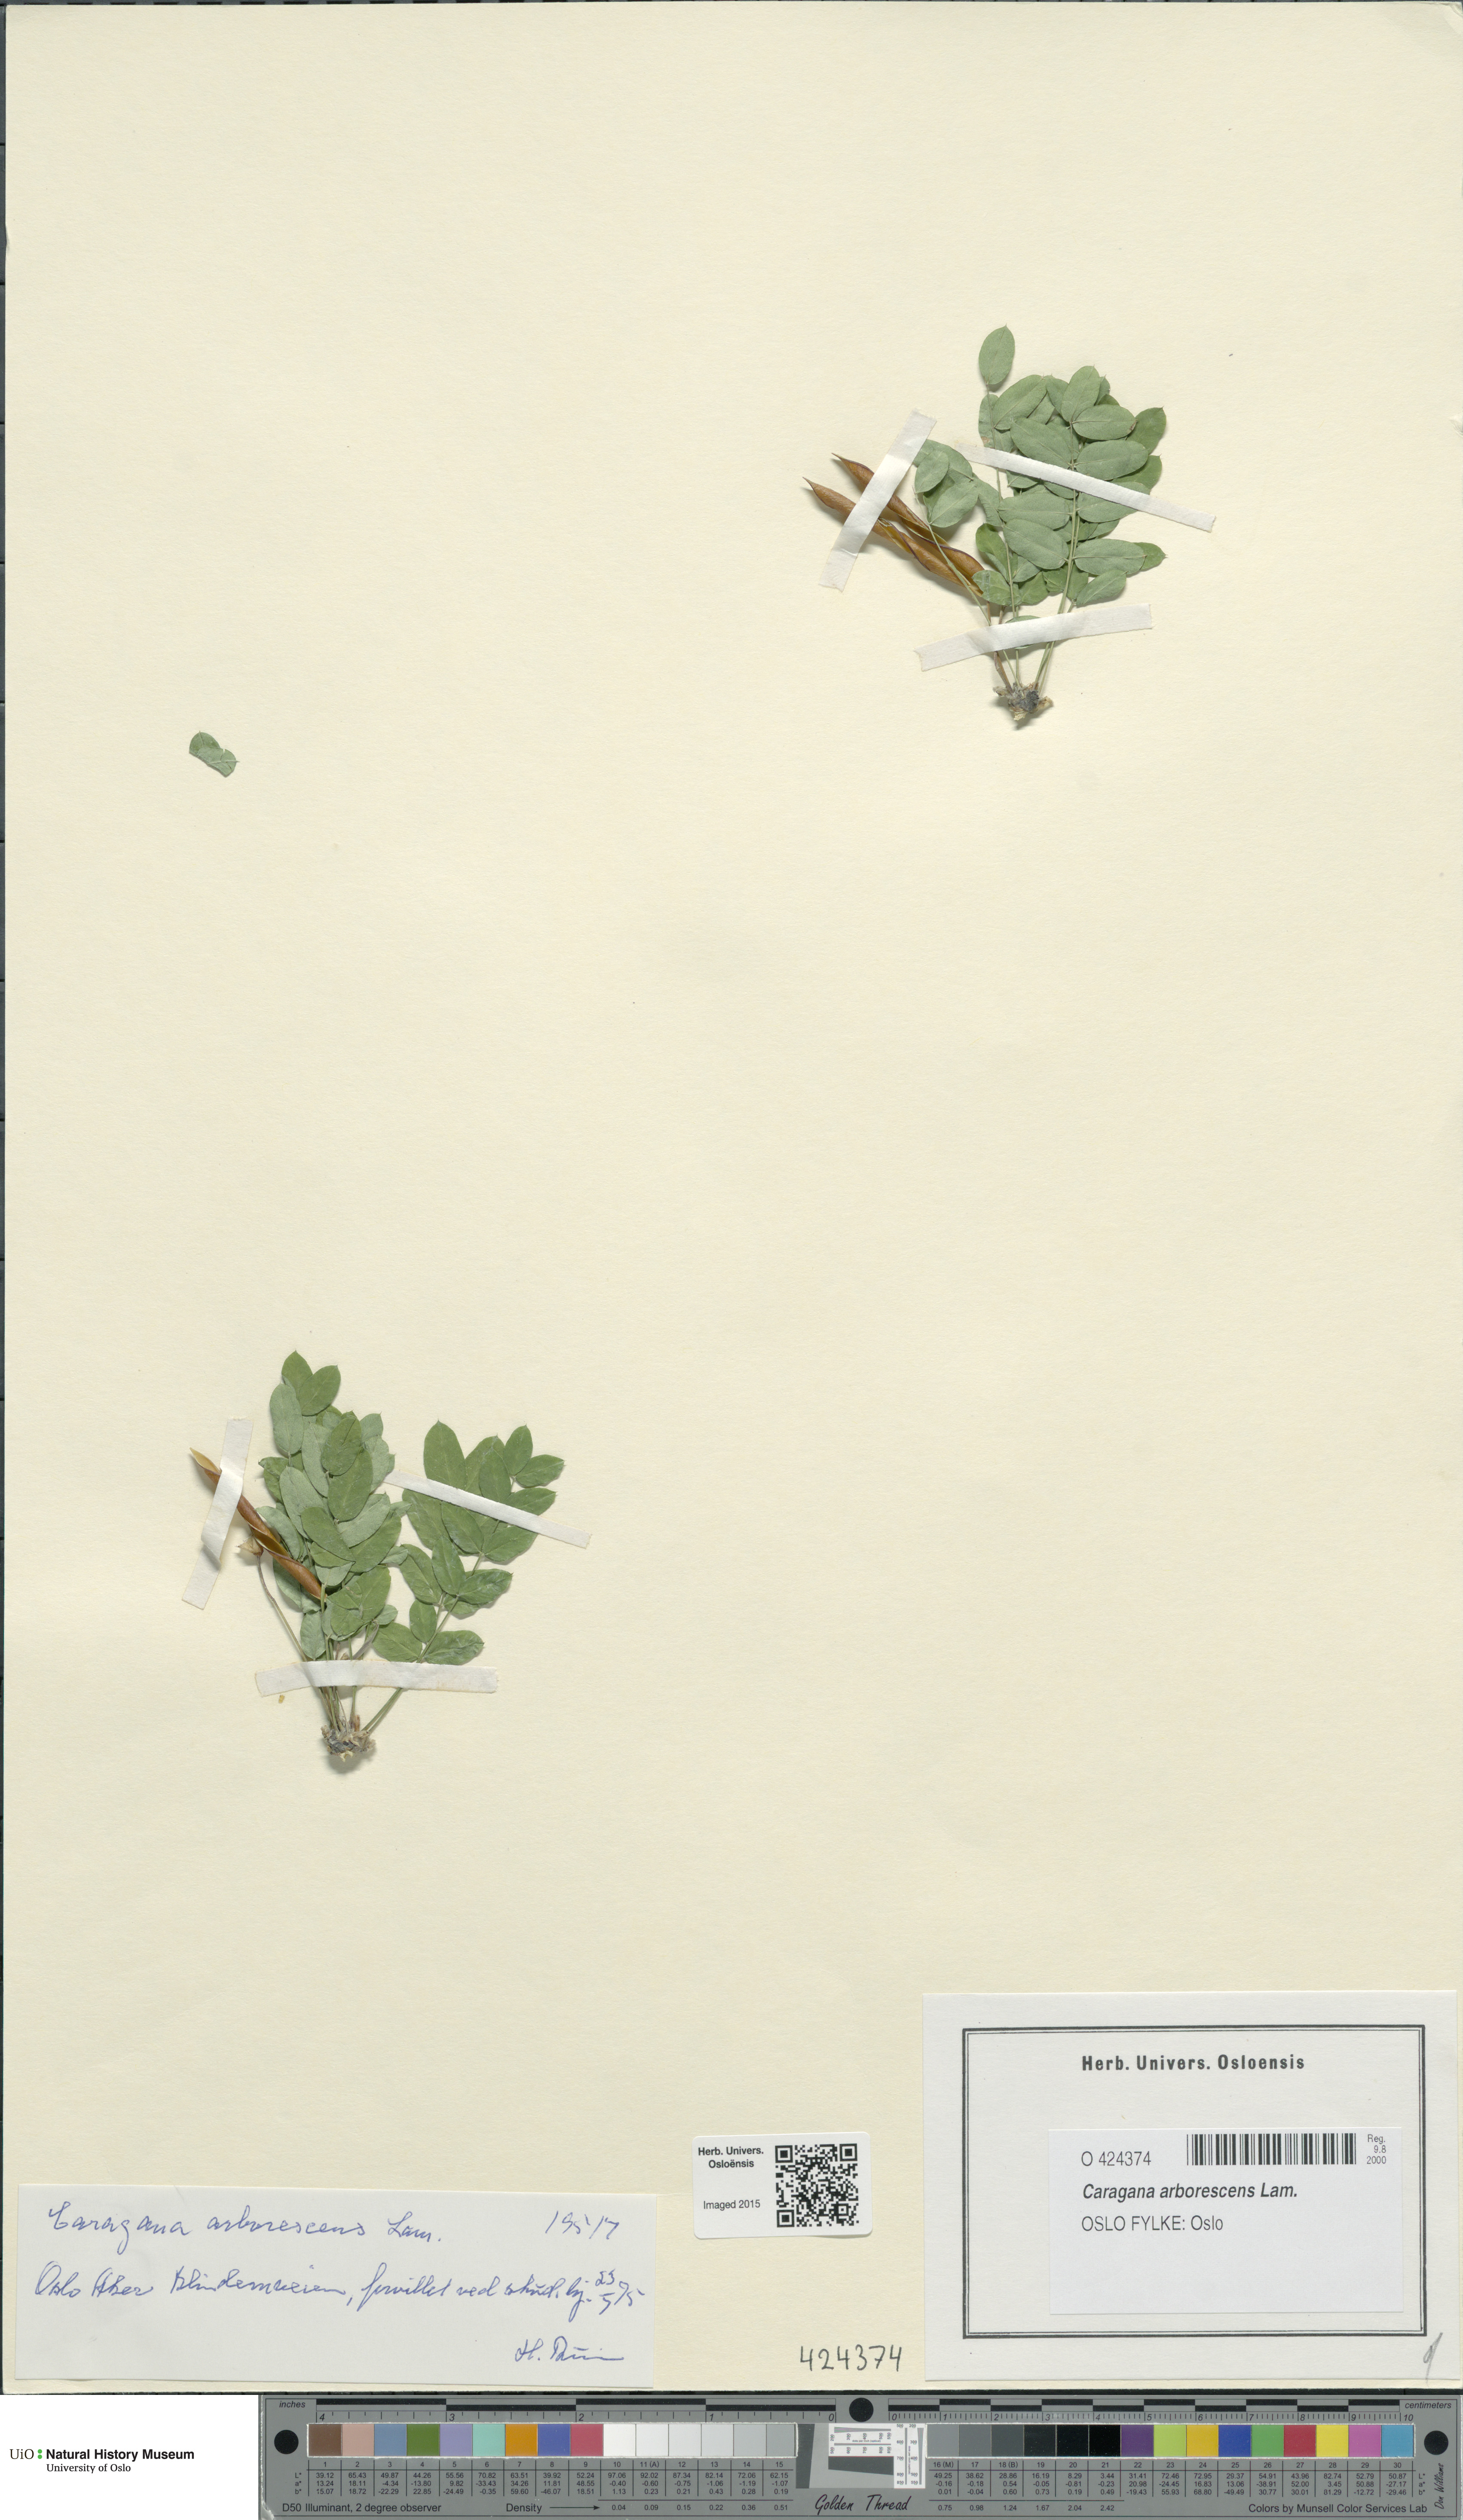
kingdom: Plantae
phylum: Tracheophyta
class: Magnoliopsida
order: Fabales
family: Fabaceae
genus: Caragana
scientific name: Caragana arborescens
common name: Siberian peashrub
